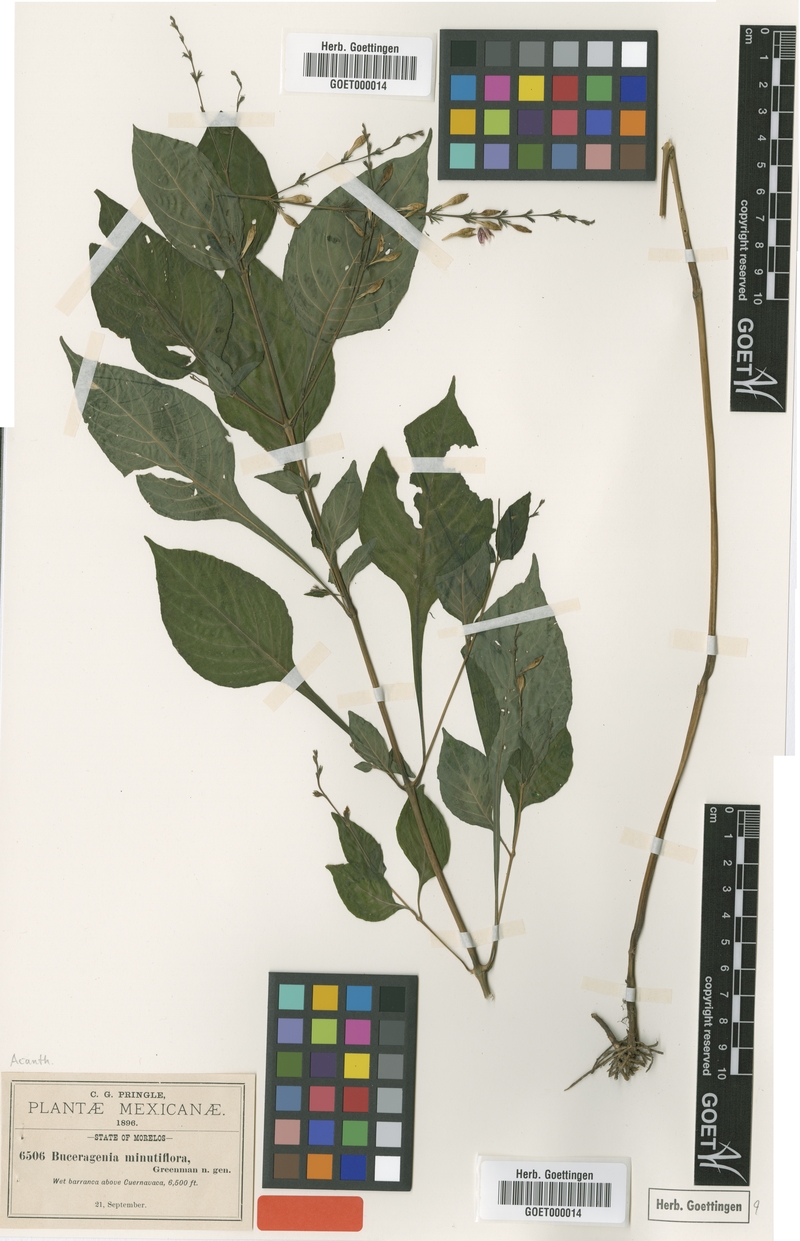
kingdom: Plantae
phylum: Tracheophyta
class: Magnoliopsida
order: Lamiales
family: Acanthaceae
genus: Pseuderanthemum
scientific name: Pseuderanthemum Buceragenia minutiflora
